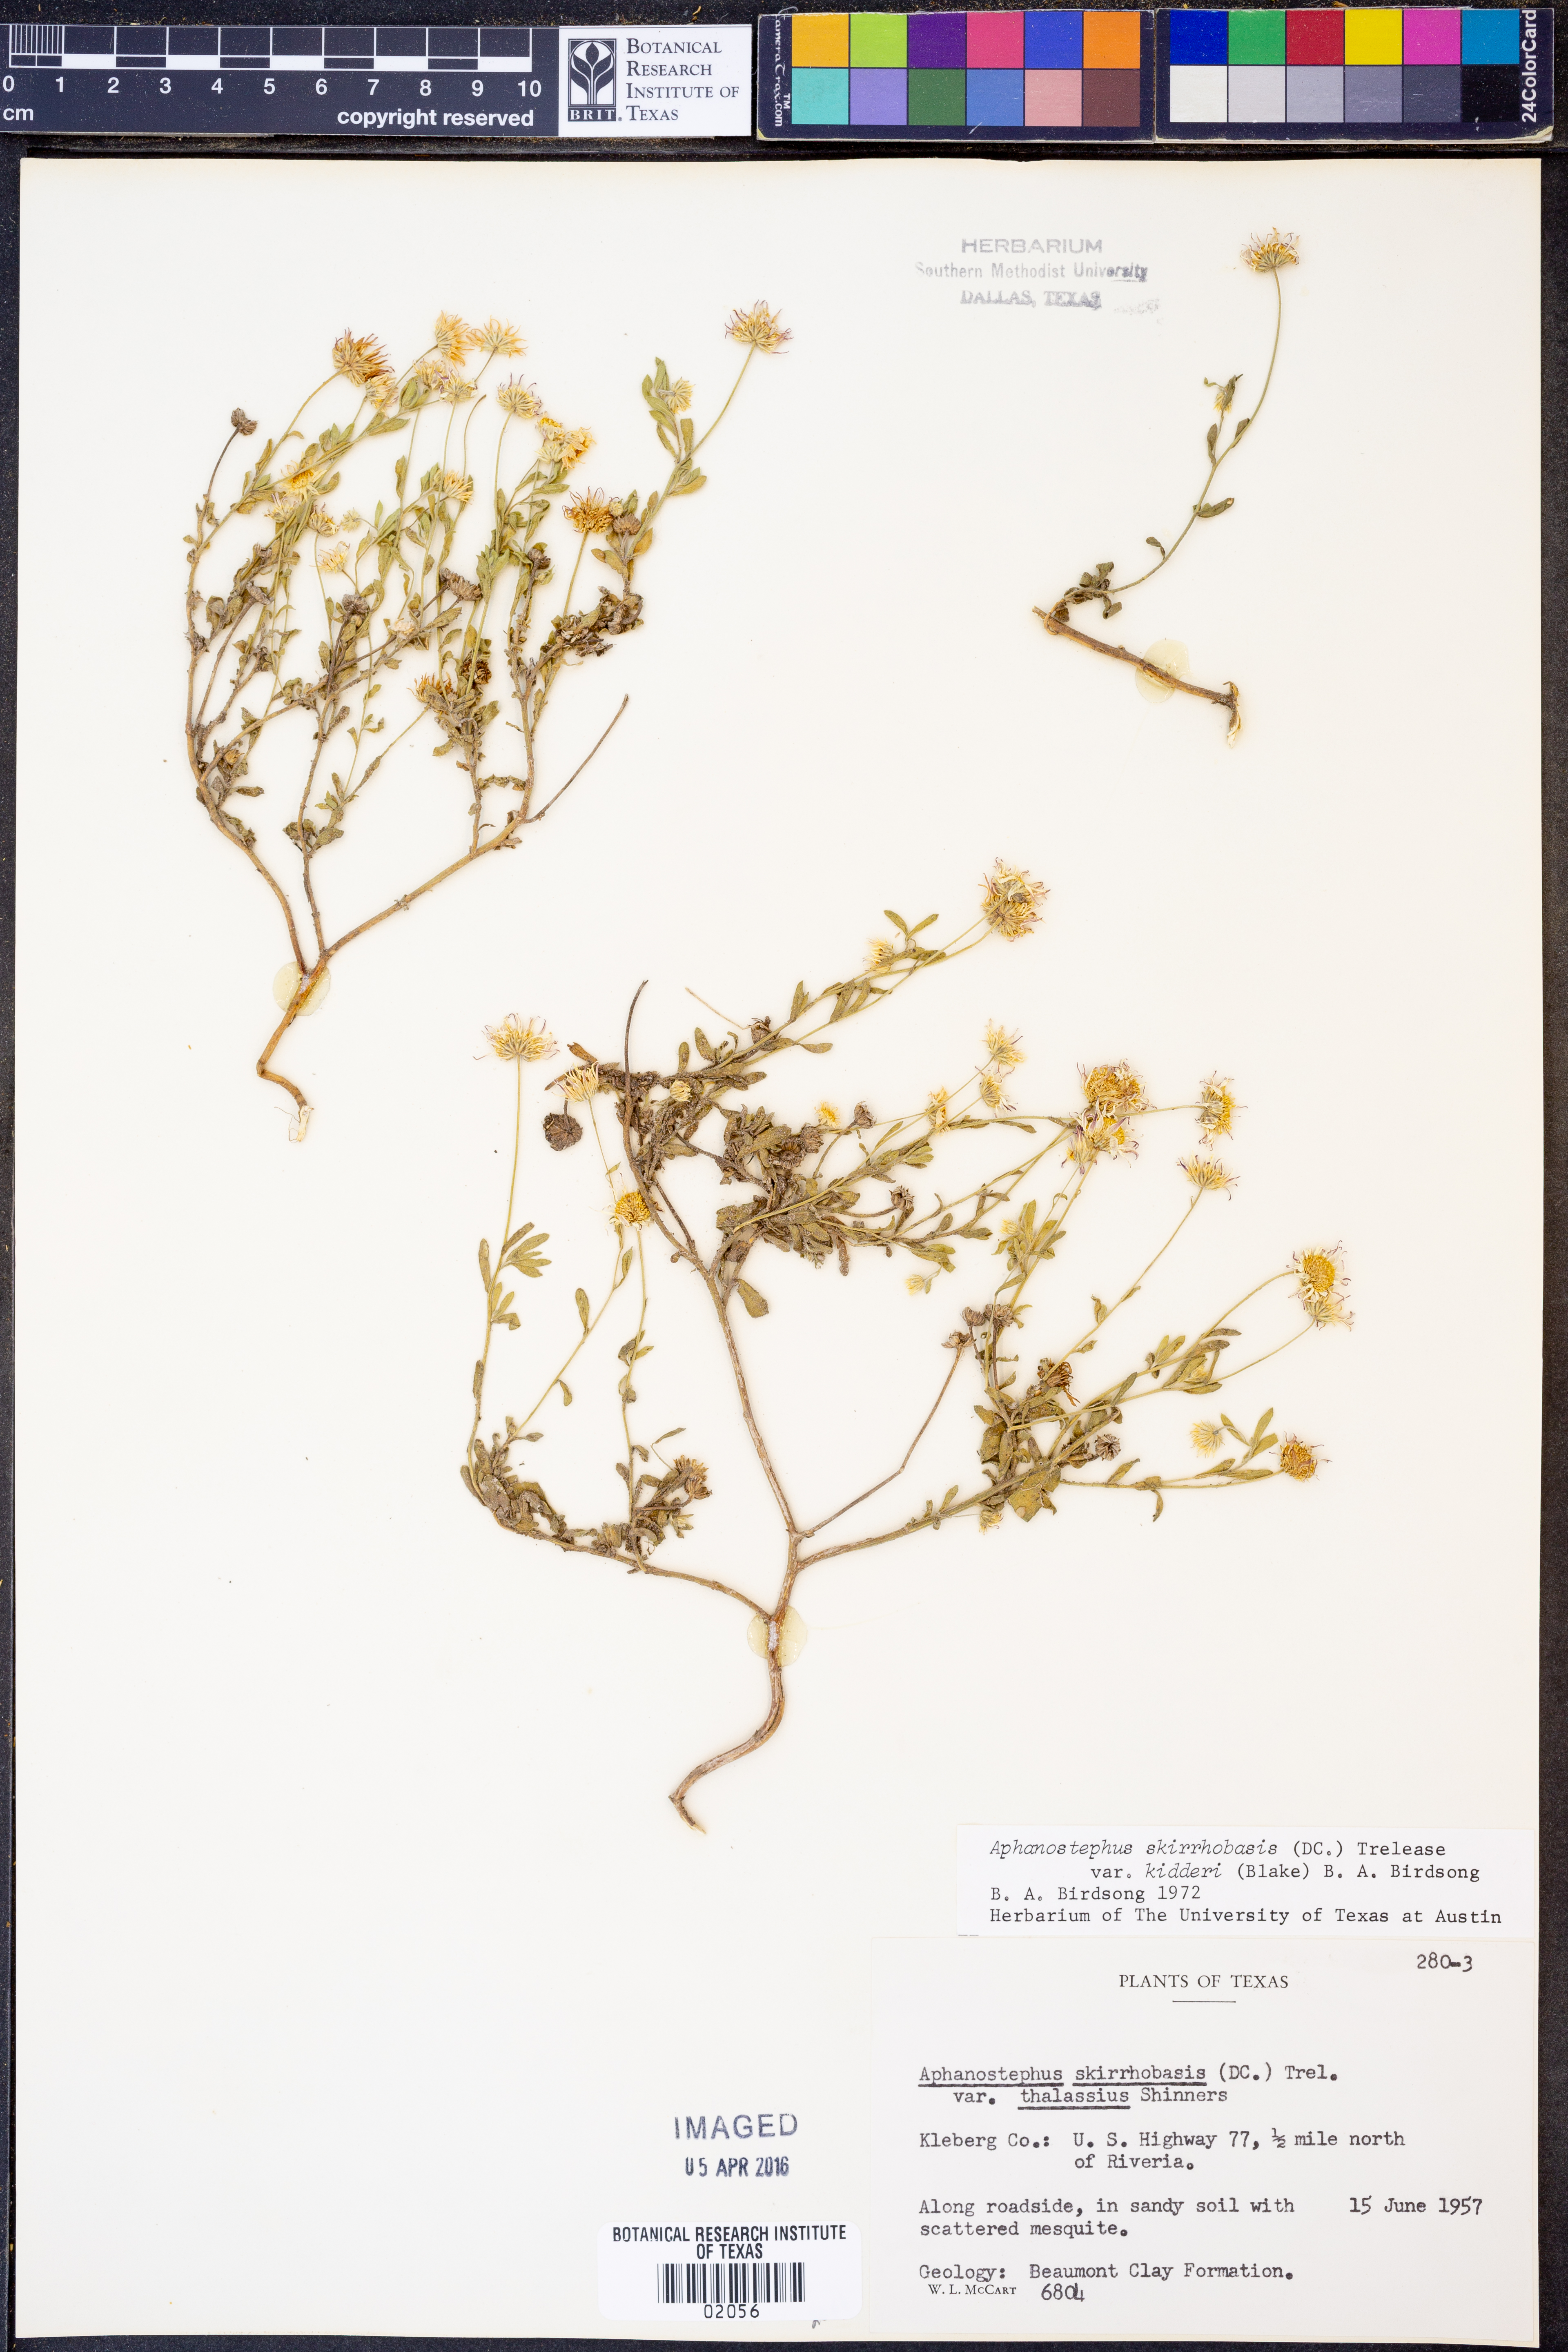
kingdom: Plantae
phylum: Tracheophyta
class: Magnoliopsida
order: Asterales
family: Asteraceae
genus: Aphanostephus
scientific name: Aphanostephus skirrhobasis
